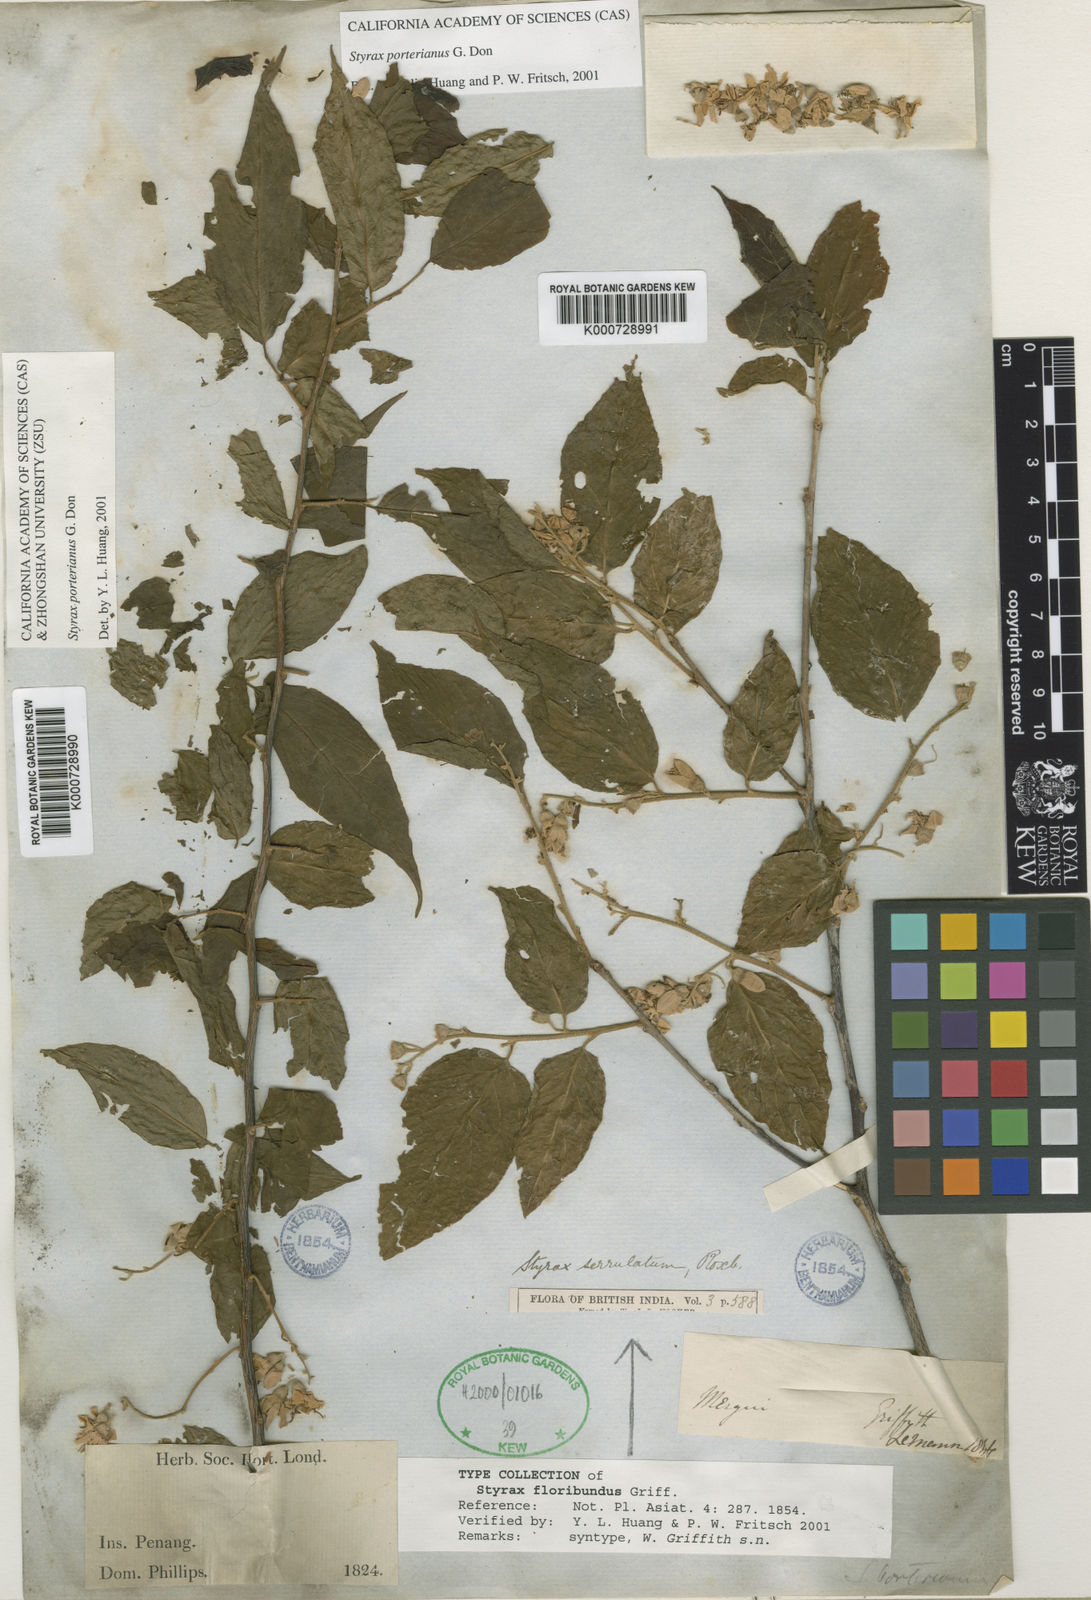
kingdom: Plantae
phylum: Tracheophyta
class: Magnoliopsida
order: Ericales
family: Styracaceae
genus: Styrax
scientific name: Styrax
